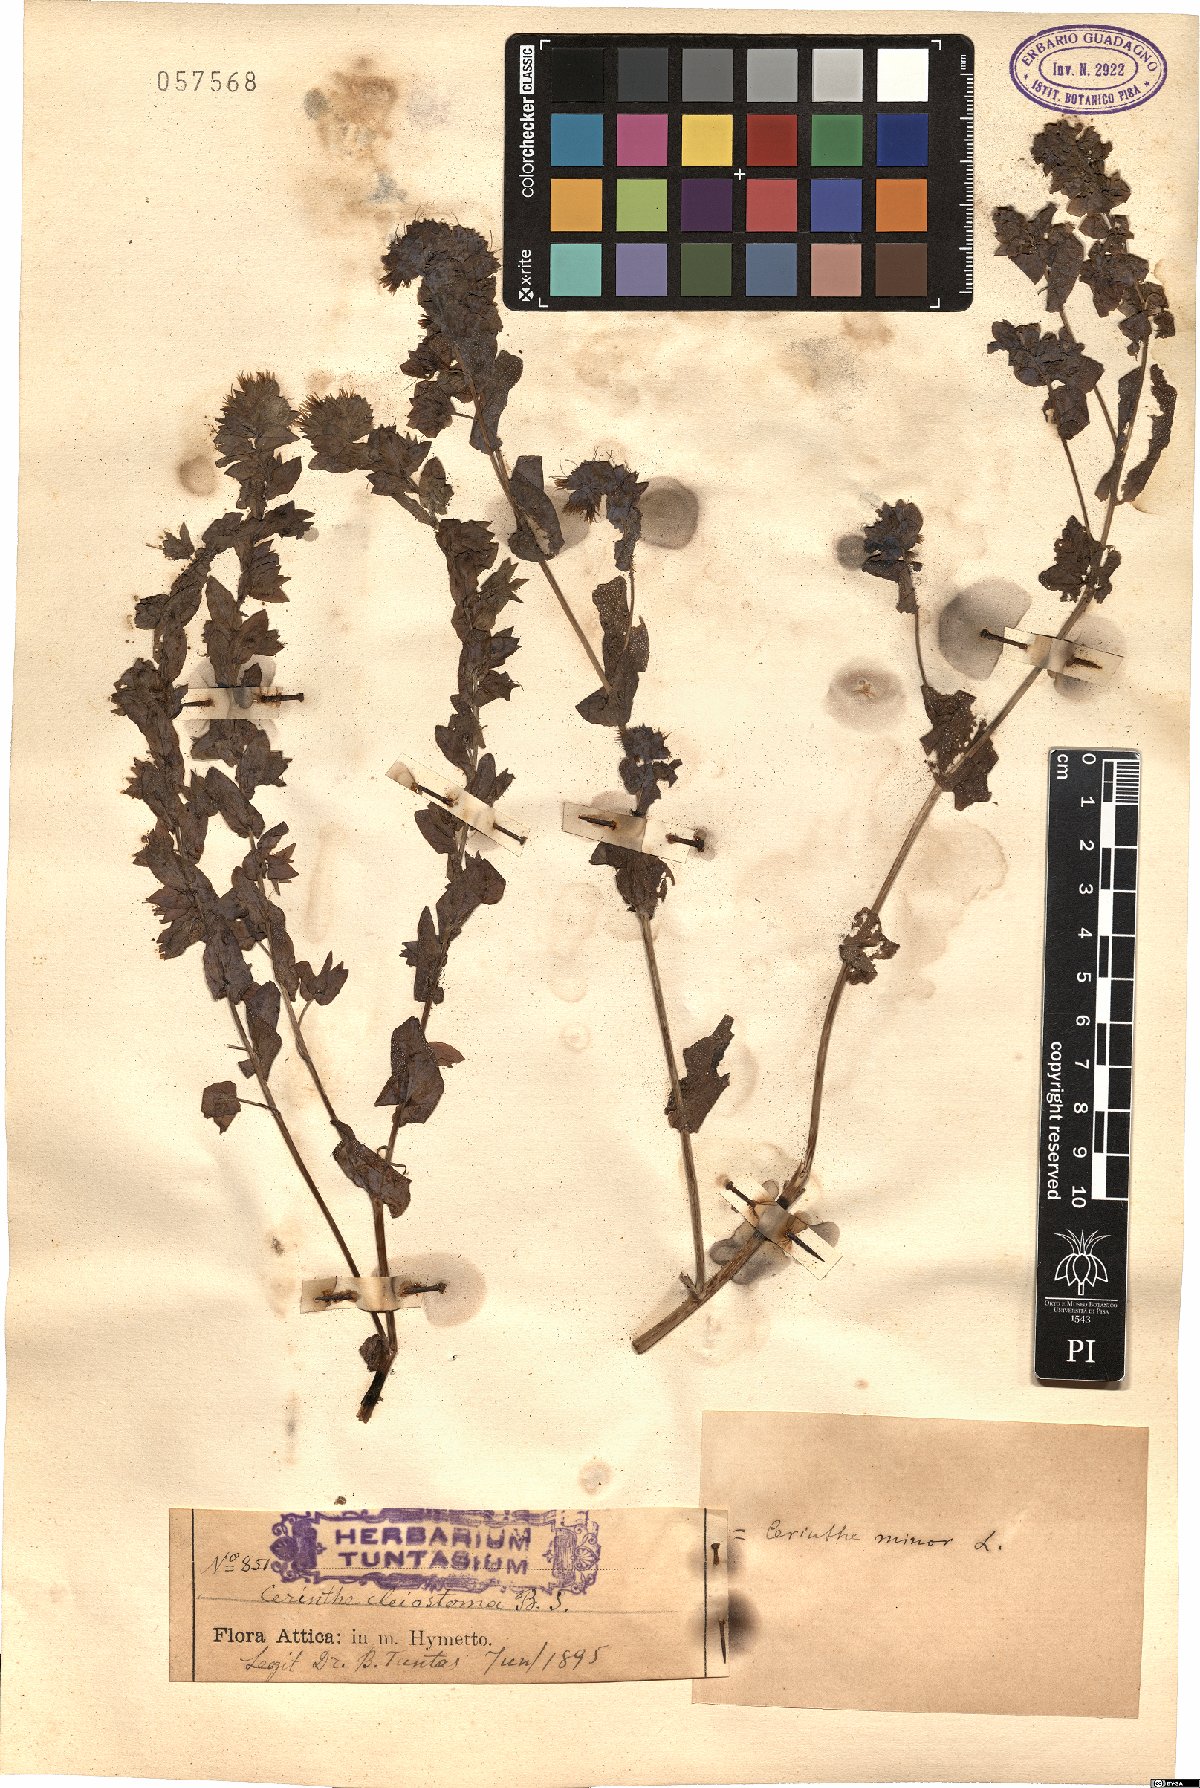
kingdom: Plantae
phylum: Tracheophyta
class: Magnoliopsida
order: Boraginales
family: Boraginaceae
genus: Cerinthe
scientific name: Cerinthe minor
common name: Lesser honeywort
